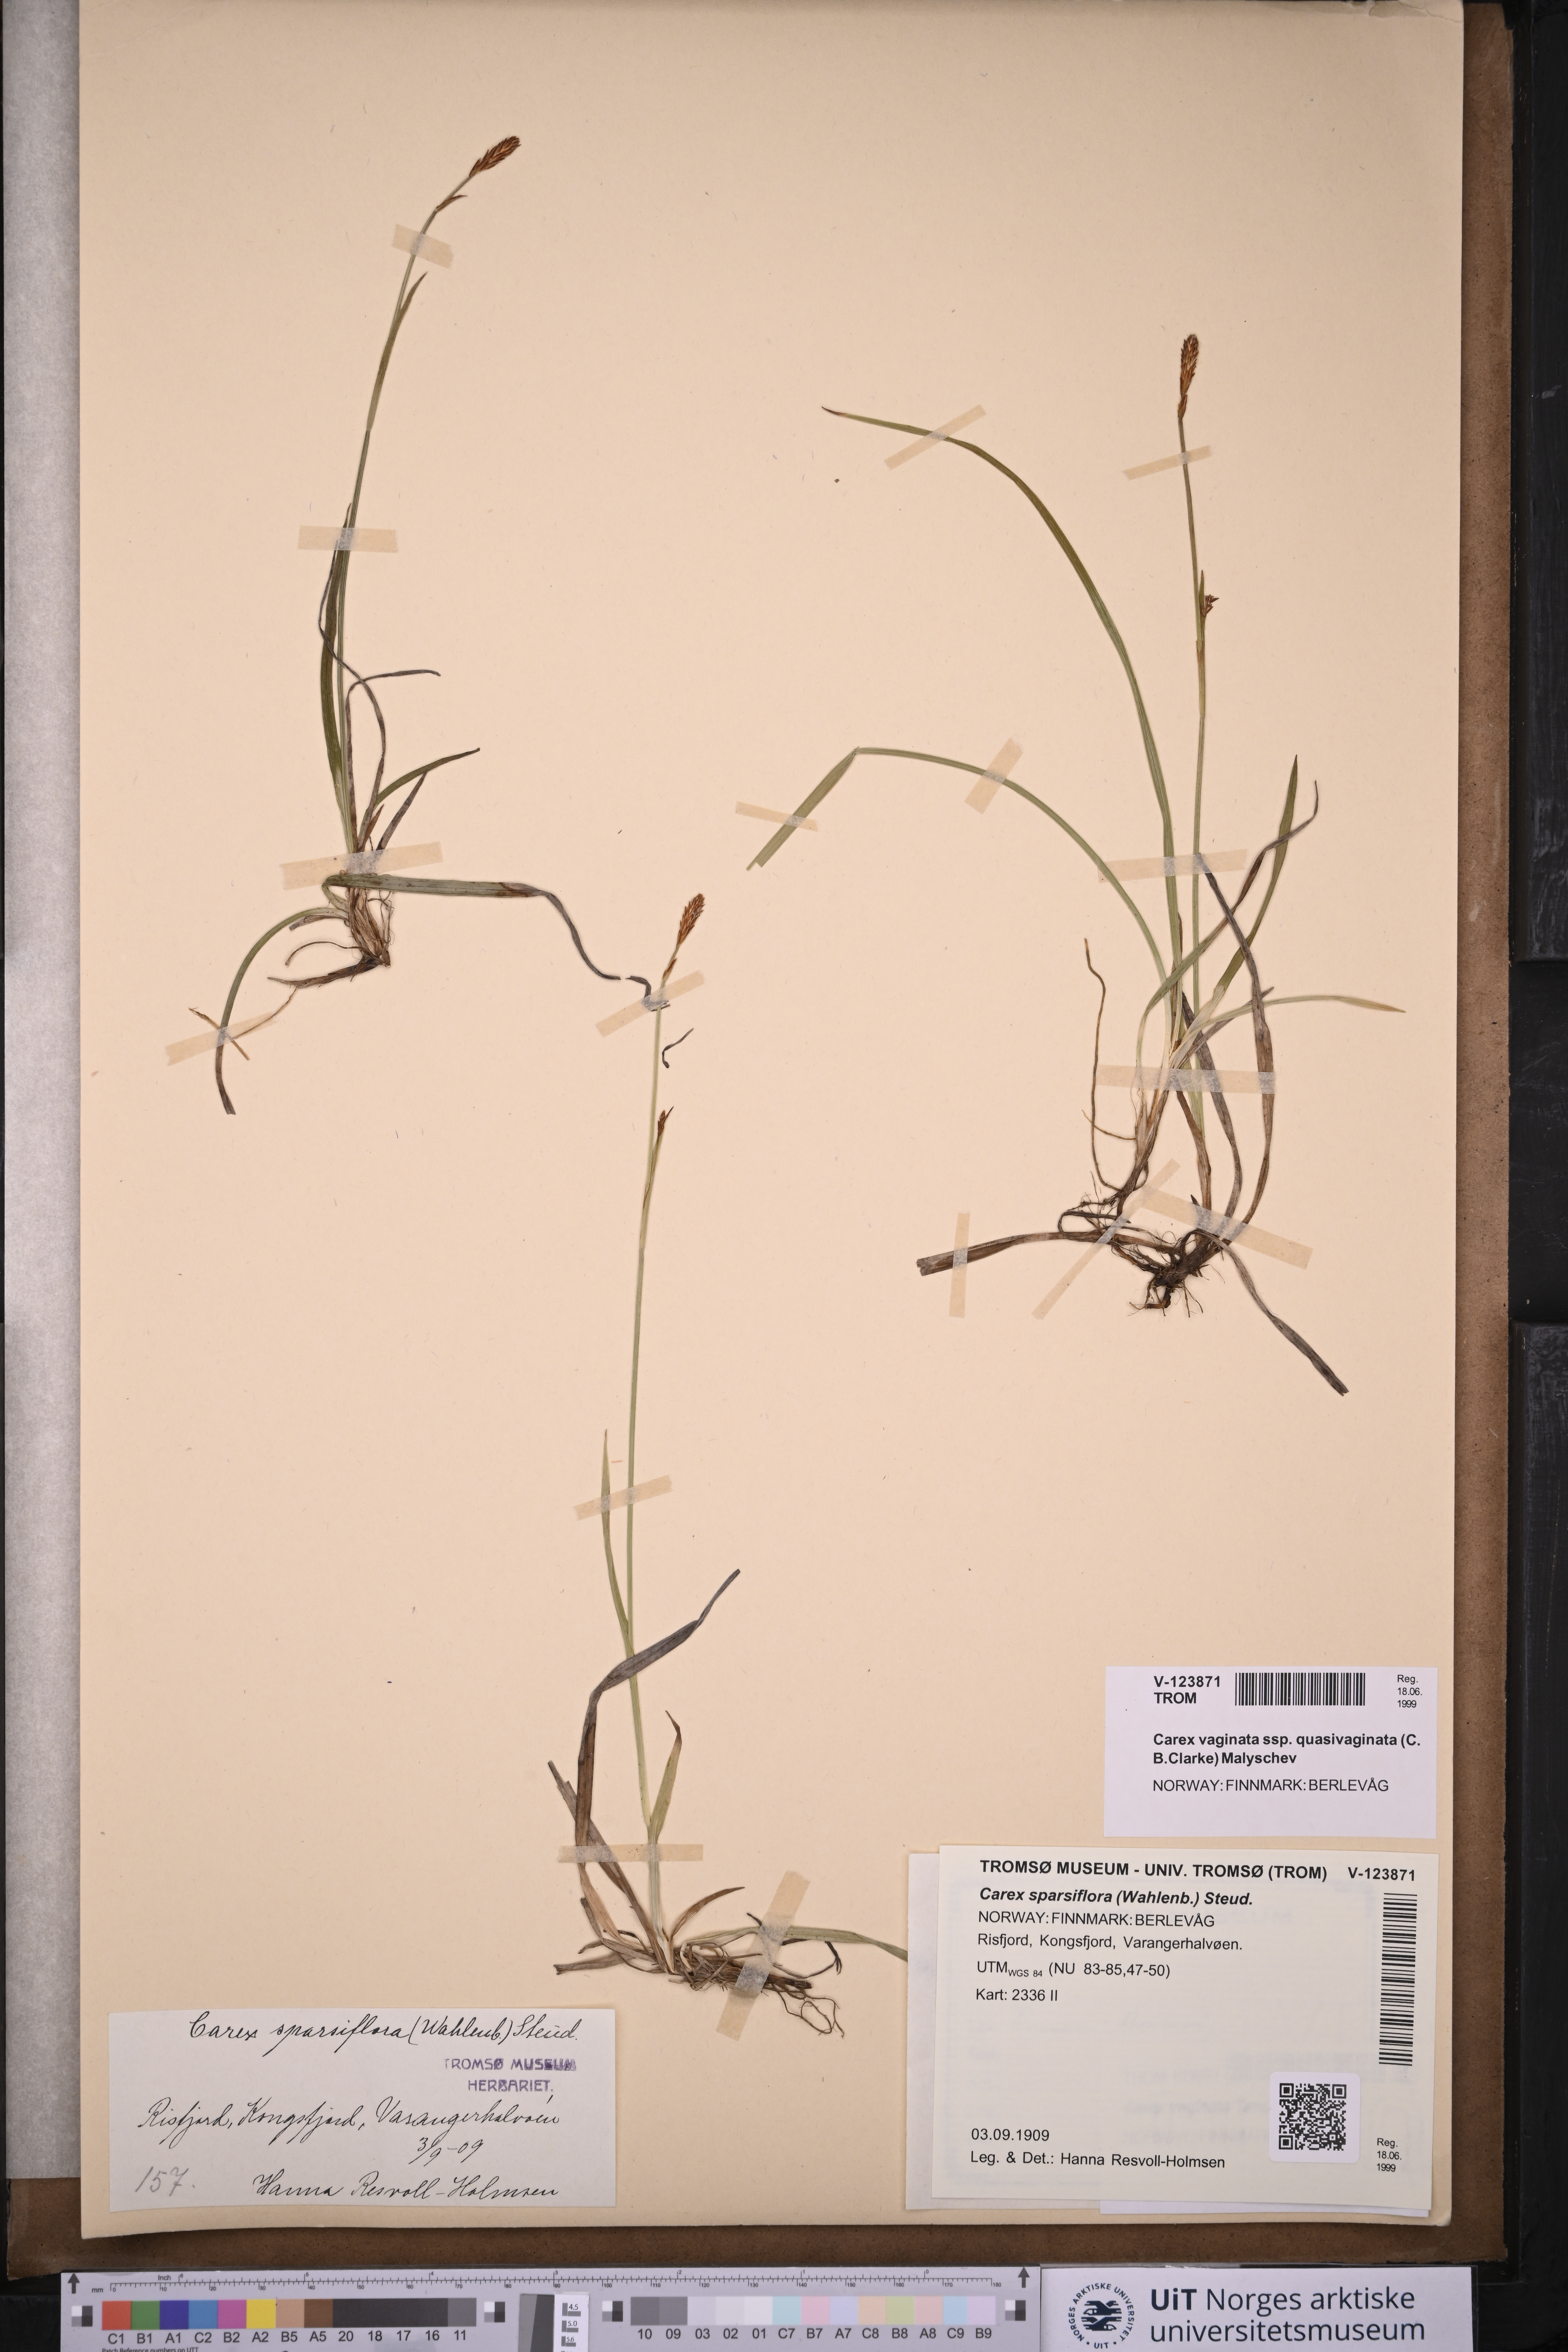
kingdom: Plantae
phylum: Tracheophyta
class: Liliopsida
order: Poales
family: Cyperaceae
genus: Carex
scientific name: Carex vaginata
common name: Sheathed sedge
